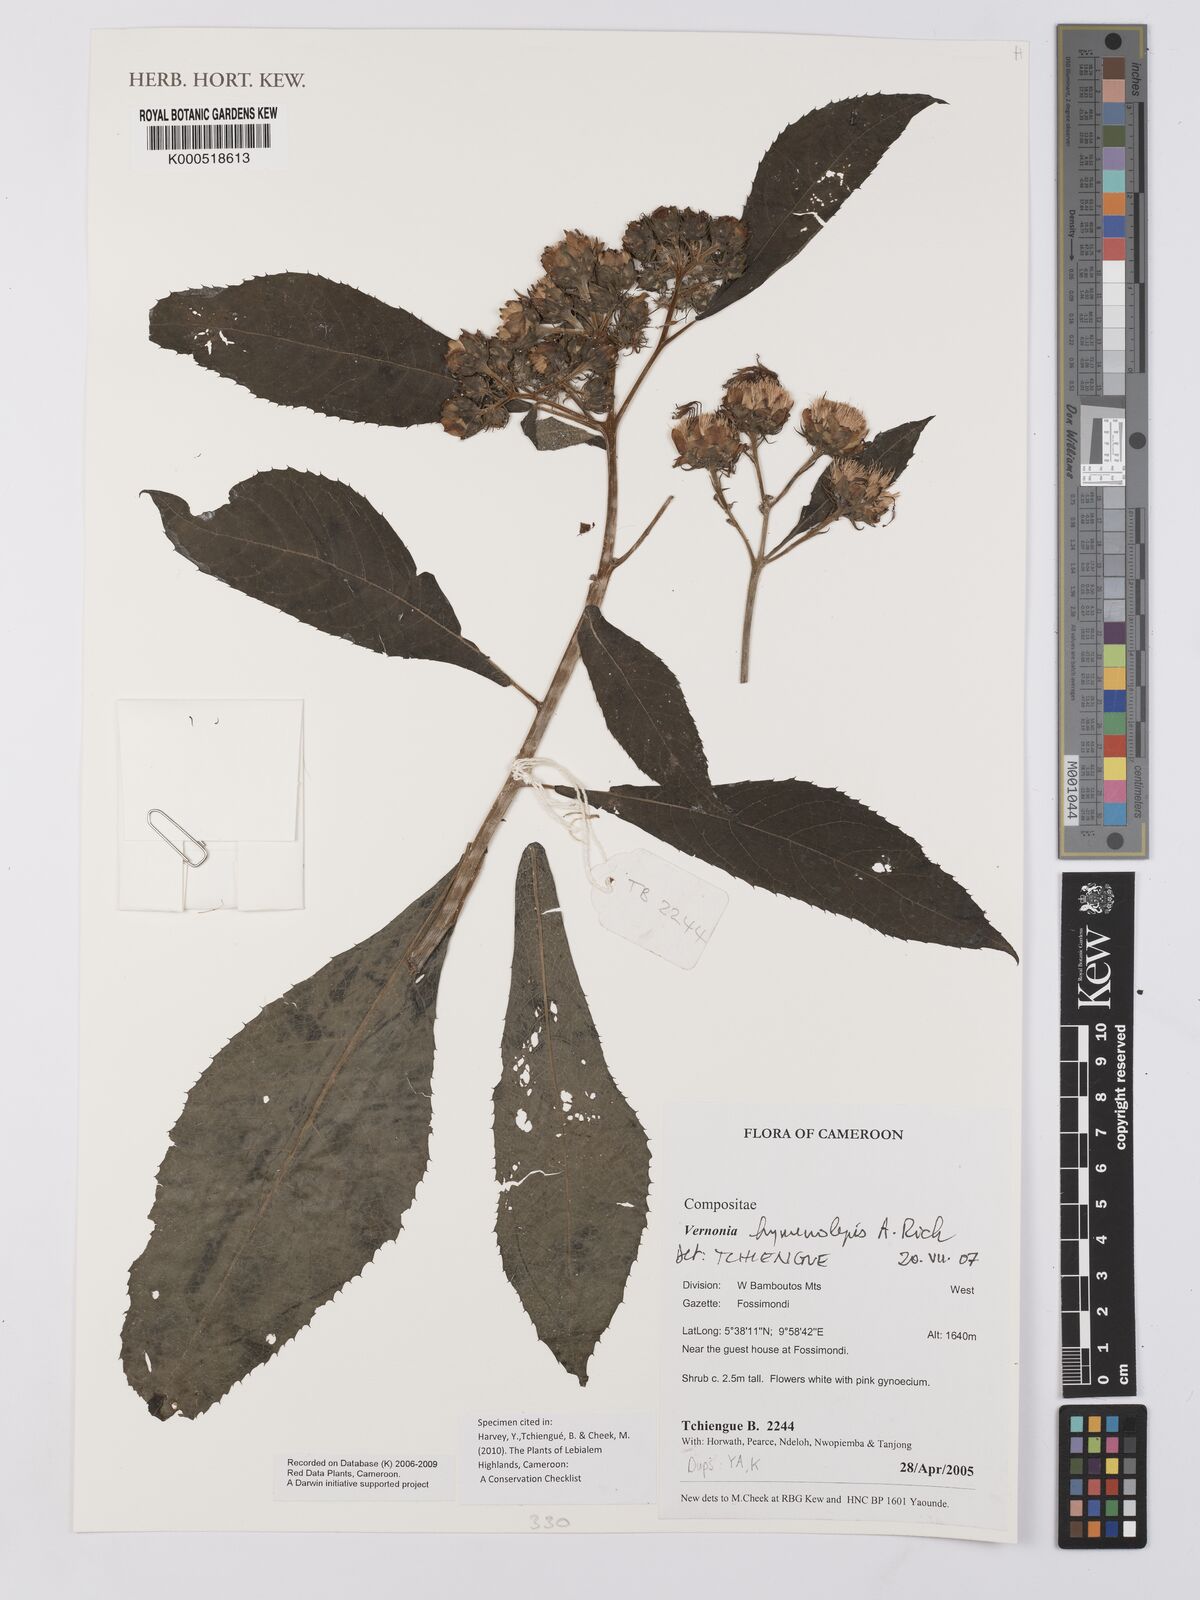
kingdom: Plantae
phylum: Tracheophyta
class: Magnoliopsida
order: Asterales
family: Asteraceae
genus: Baccharoides
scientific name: Baccharoides hymenolepis
